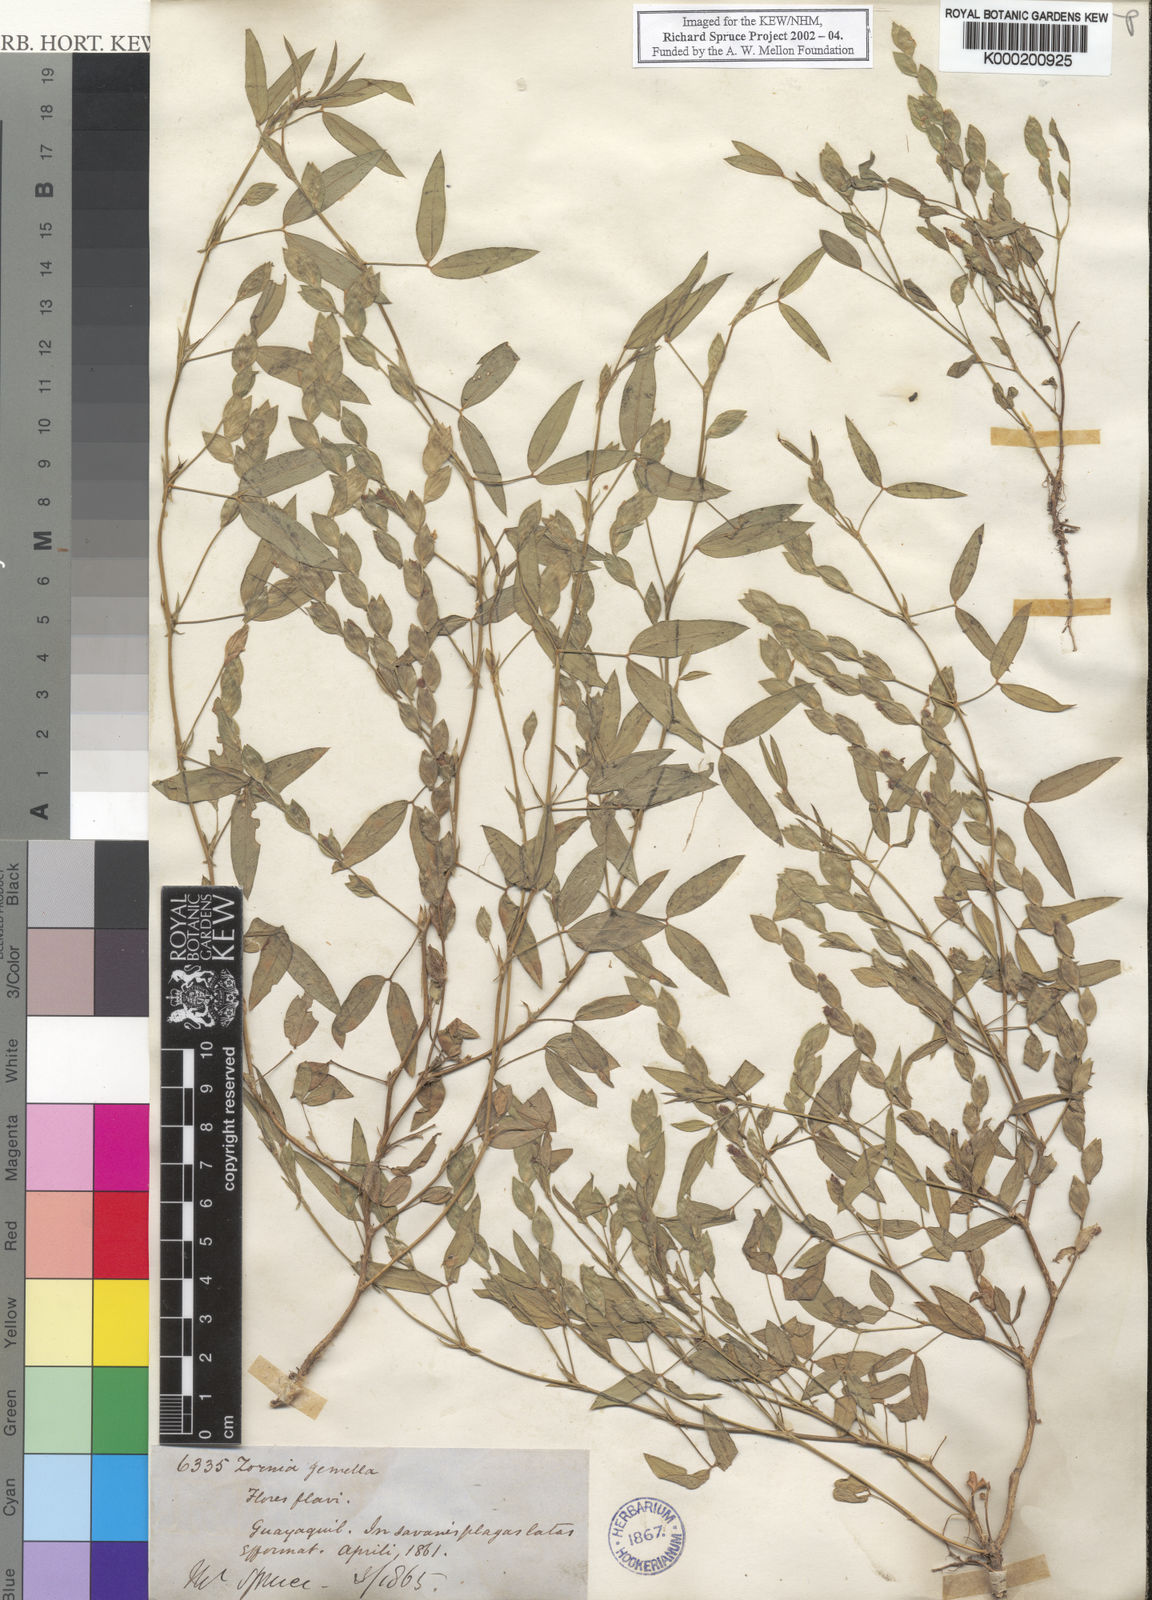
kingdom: Plantae
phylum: Tracheophyta
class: Magnoliopsida
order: Fabales
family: Fabaceae
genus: Zornia
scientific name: Zornia reticulata
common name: Reticulate viperina
